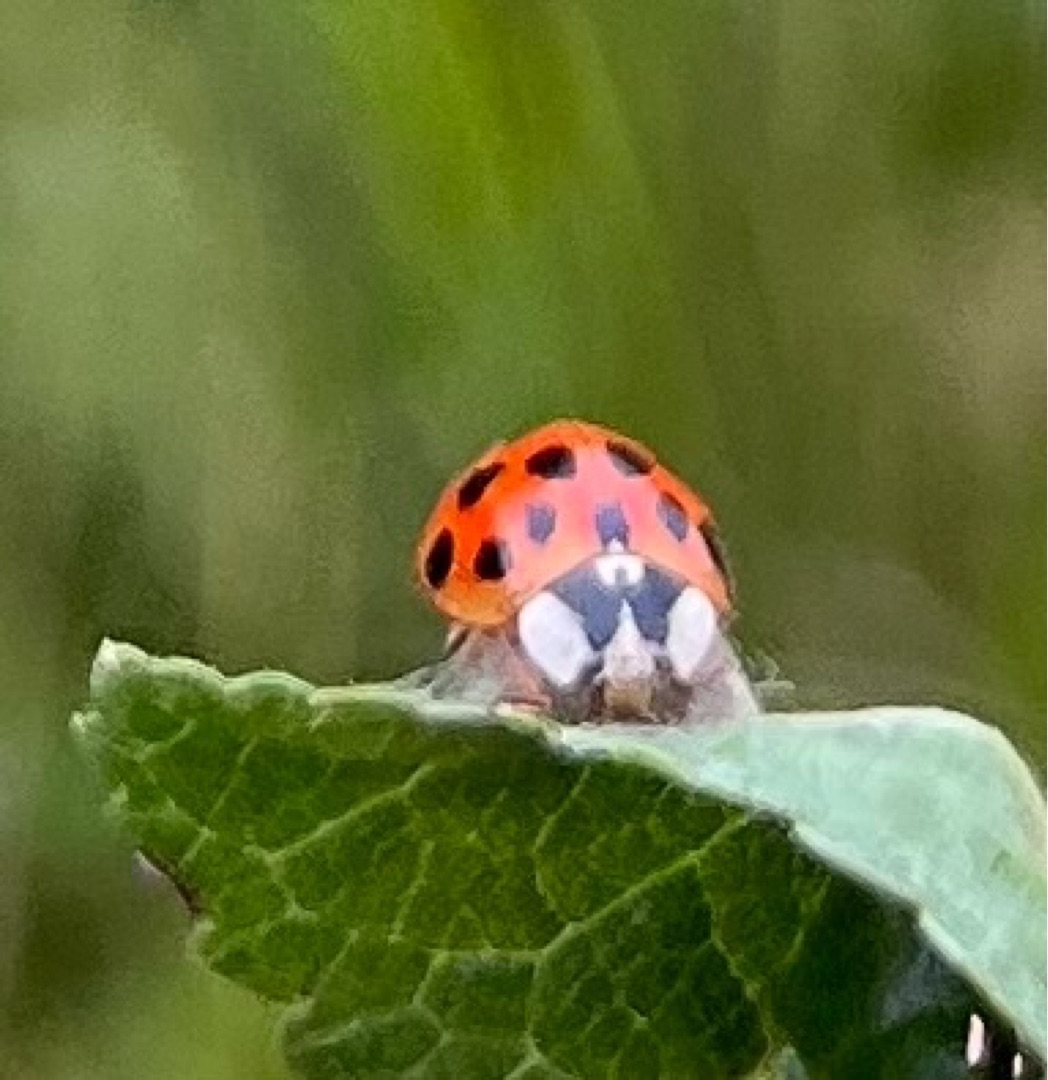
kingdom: Animalia
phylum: Arthropoda
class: Insecta
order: Coleoptera
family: Coccinellidae
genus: Harmonia
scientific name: Harmonia axyridis
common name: Harlekinmariehøne
